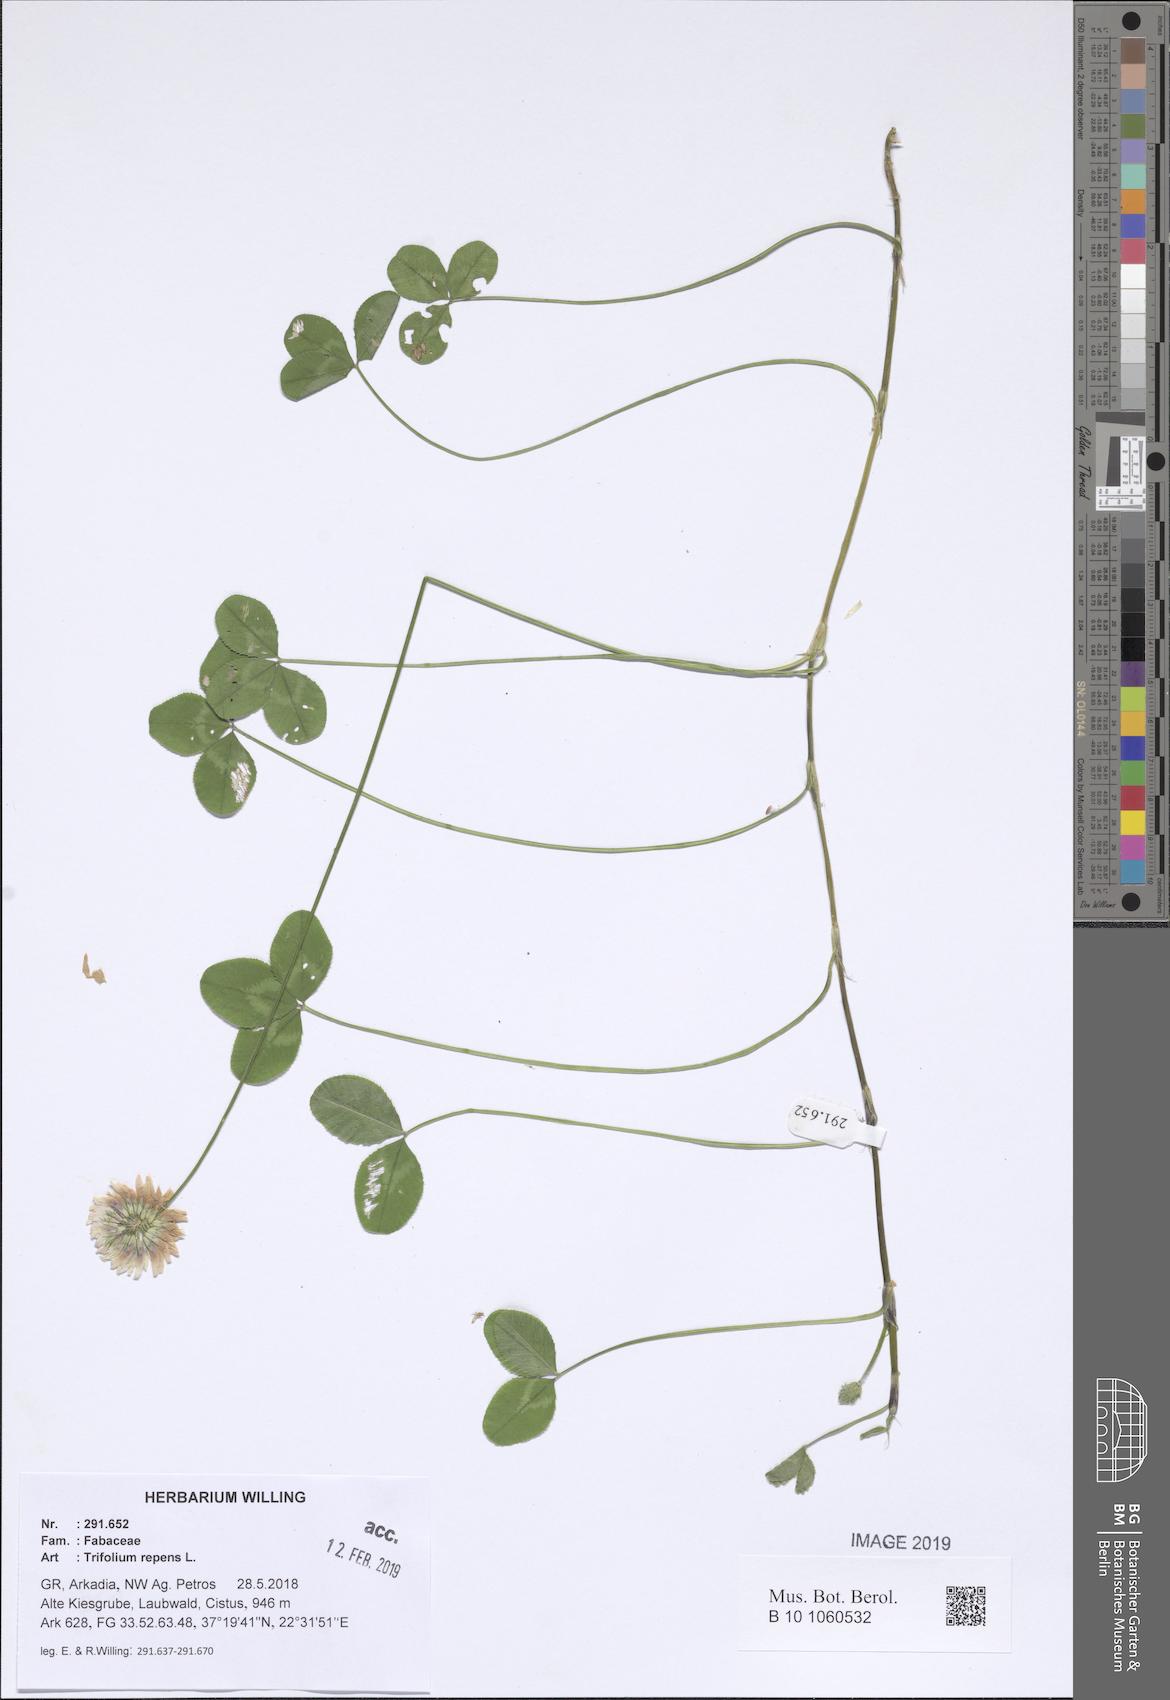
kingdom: Plantae
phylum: Tracheophyta
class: Magnoliopsida
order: Fabales
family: Fabaceae
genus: Trifolium
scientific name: Trifolium repens
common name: White clover
